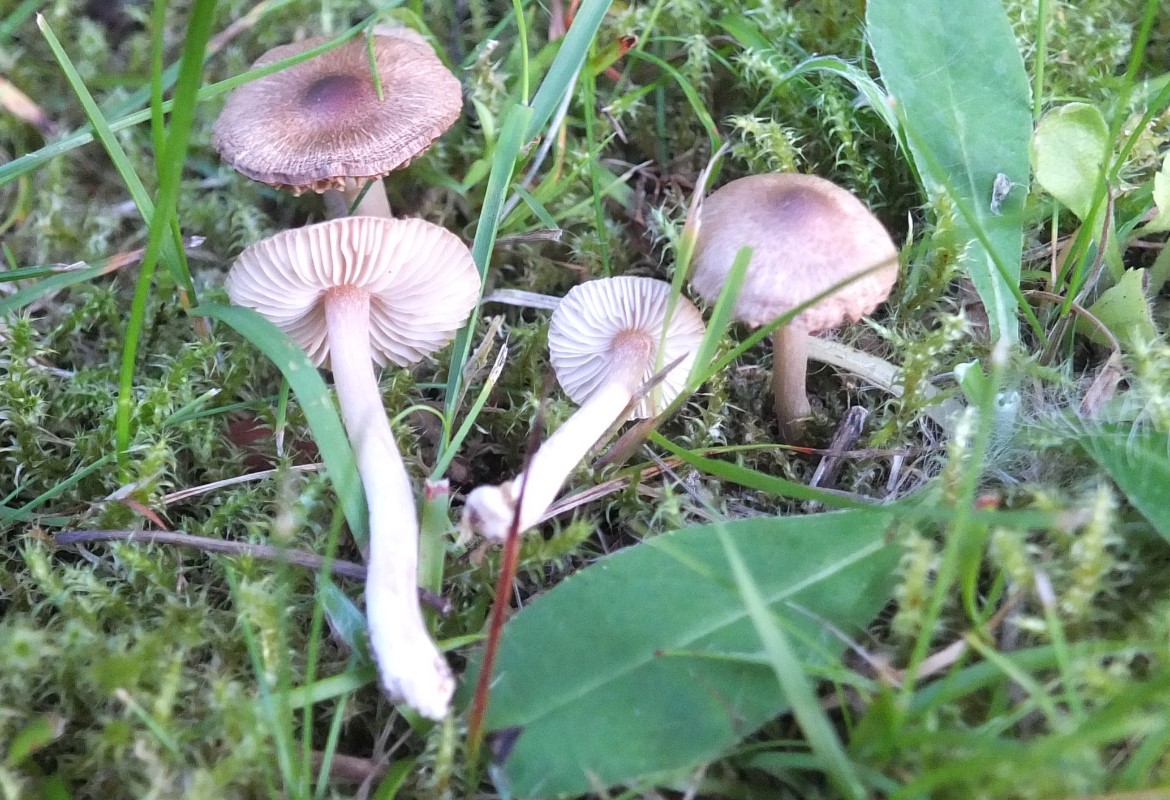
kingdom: Fungi
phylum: Basidiomycota
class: Agaricomycetes
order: Agaricales
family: Inocybaceae
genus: Inocybe
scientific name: Inocybe
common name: trævlhat
